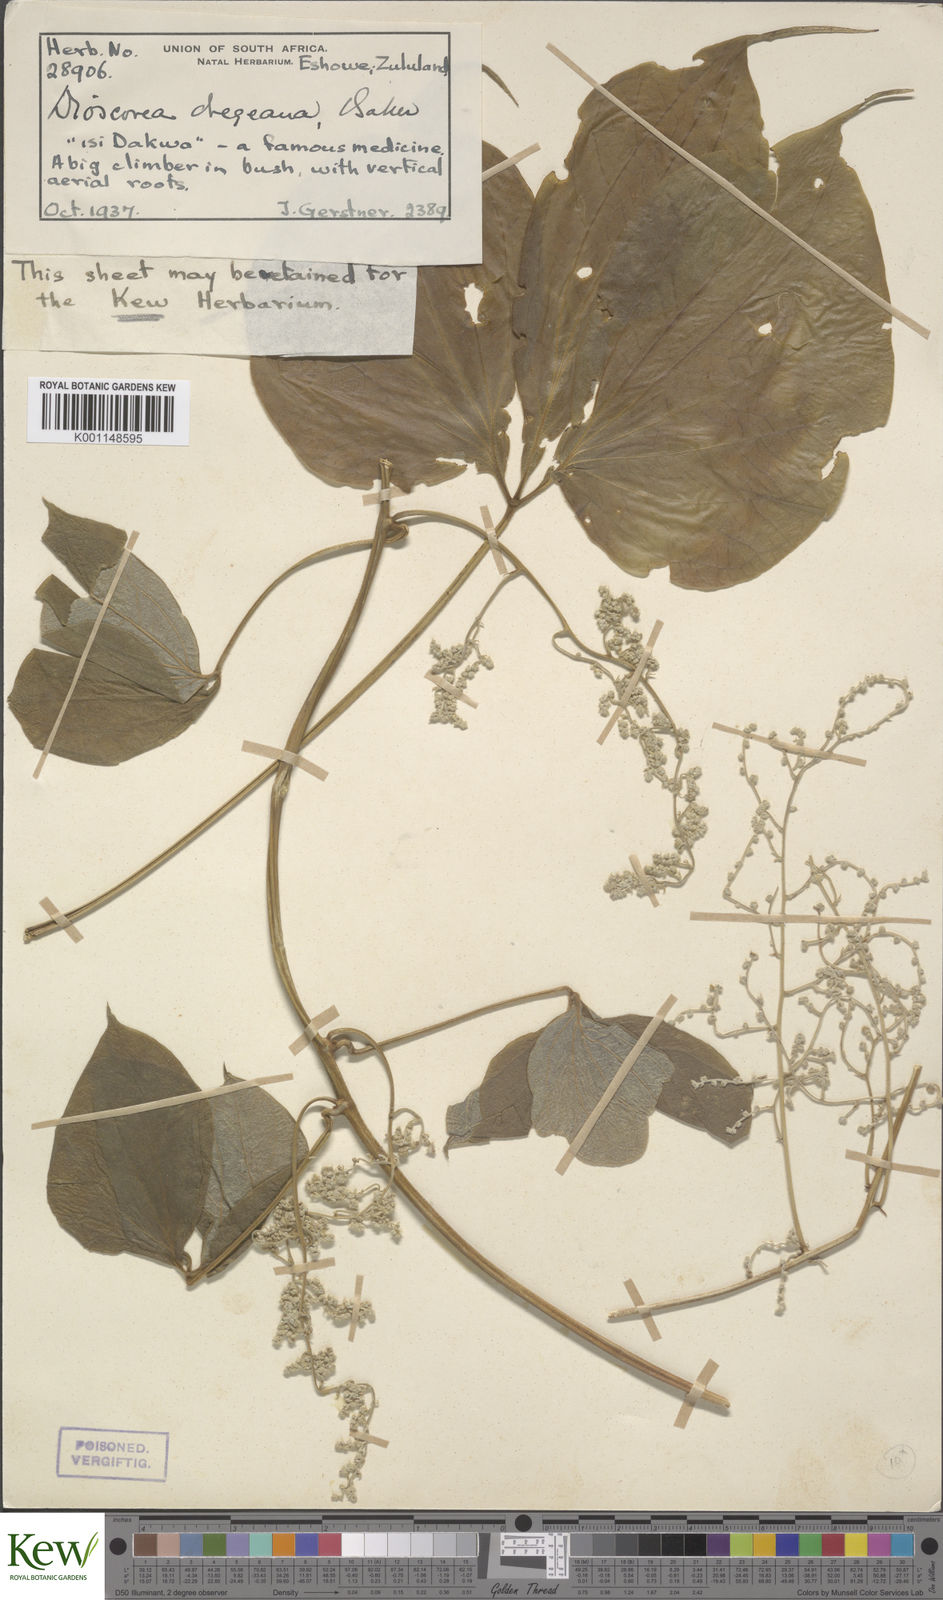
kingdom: Plantae
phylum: Tracheophyta
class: Liliopsida
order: Dioscoreales
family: Dioscoreaceae
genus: Dioscorea
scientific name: Dioscorea dregeana
